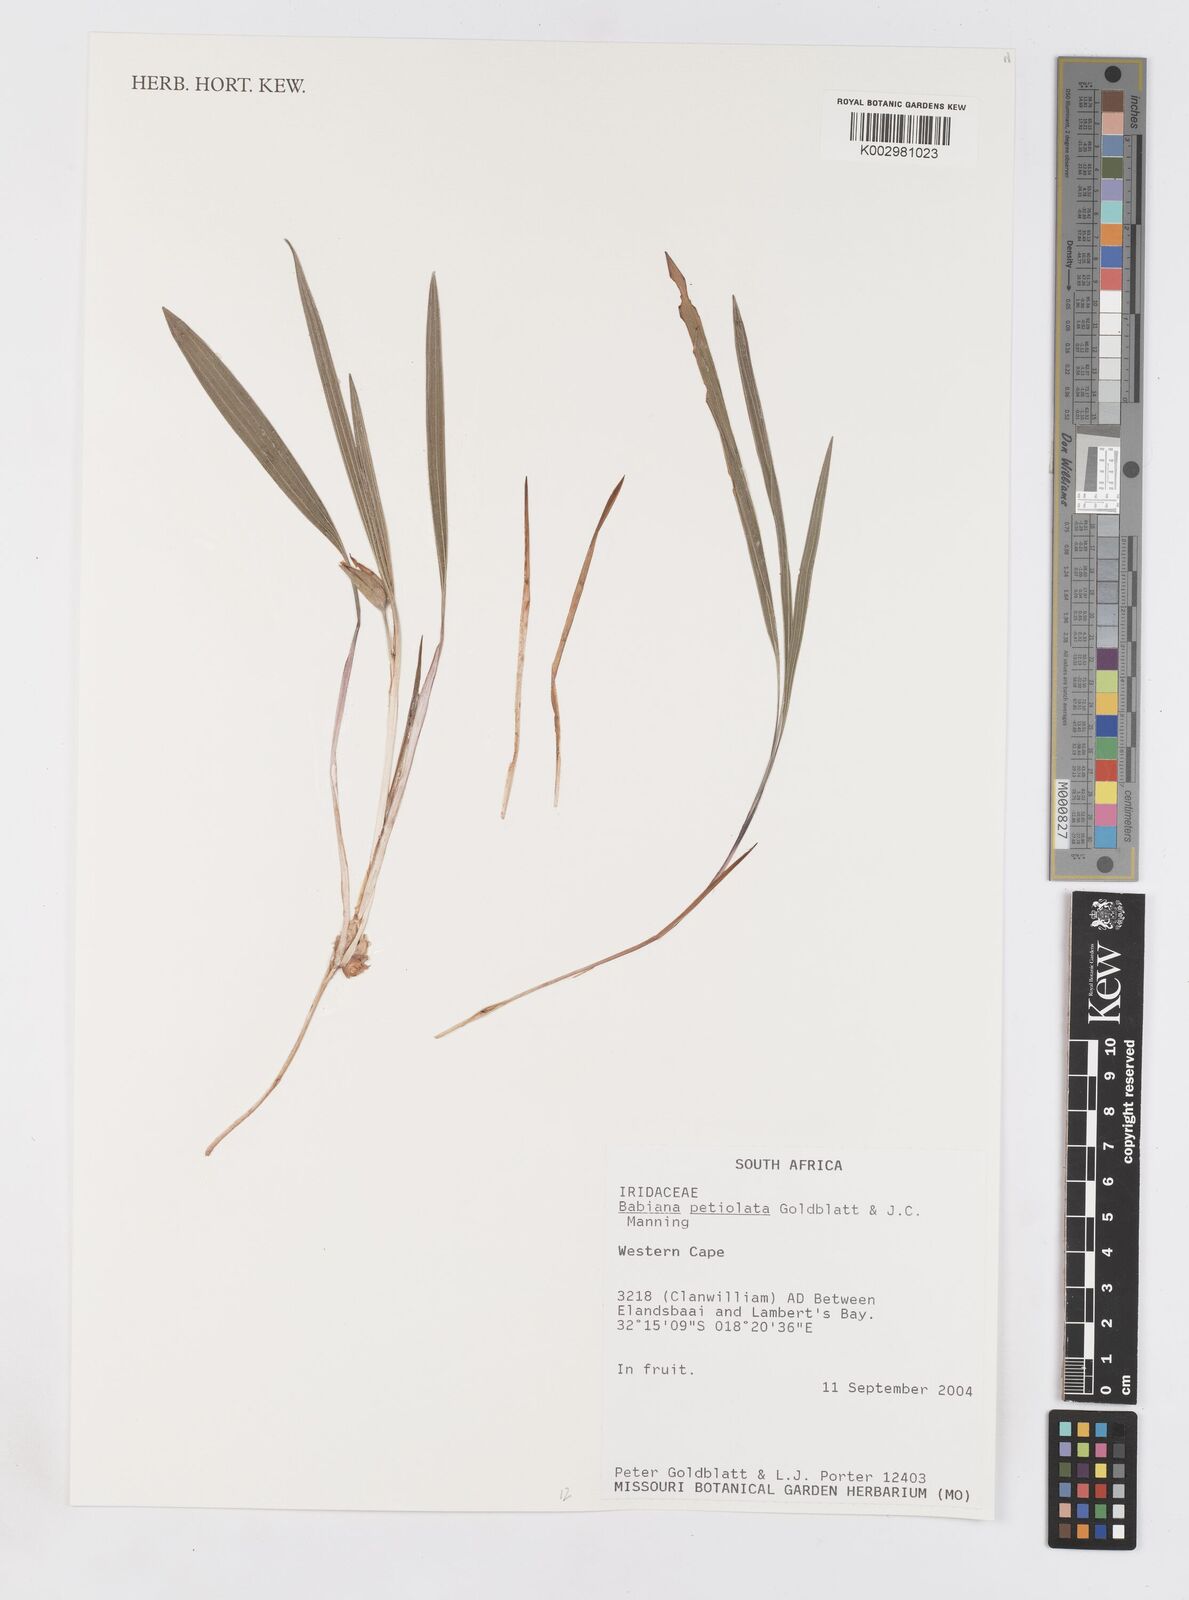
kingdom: Plantae
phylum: Tracheophyta
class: Liliopsida
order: Asparagales
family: Iridaceae
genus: Babiana
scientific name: Babiana petiolata
